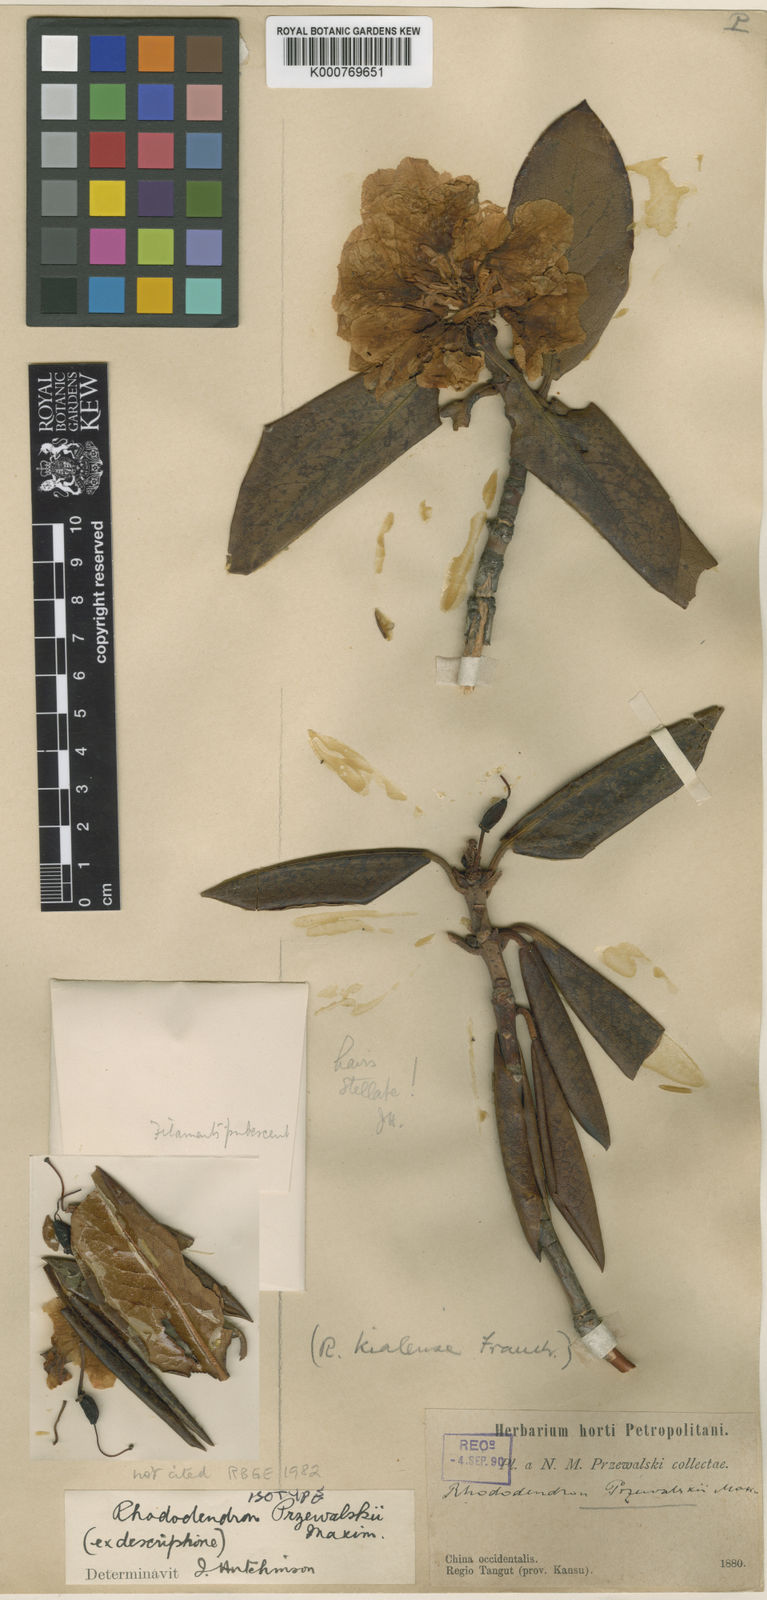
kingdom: Plantae
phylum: Tracheophyta
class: Magnoliopsida
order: Ericales
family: Ericaceae
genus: Rhododendron
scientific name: Rhododendron przewalskii
